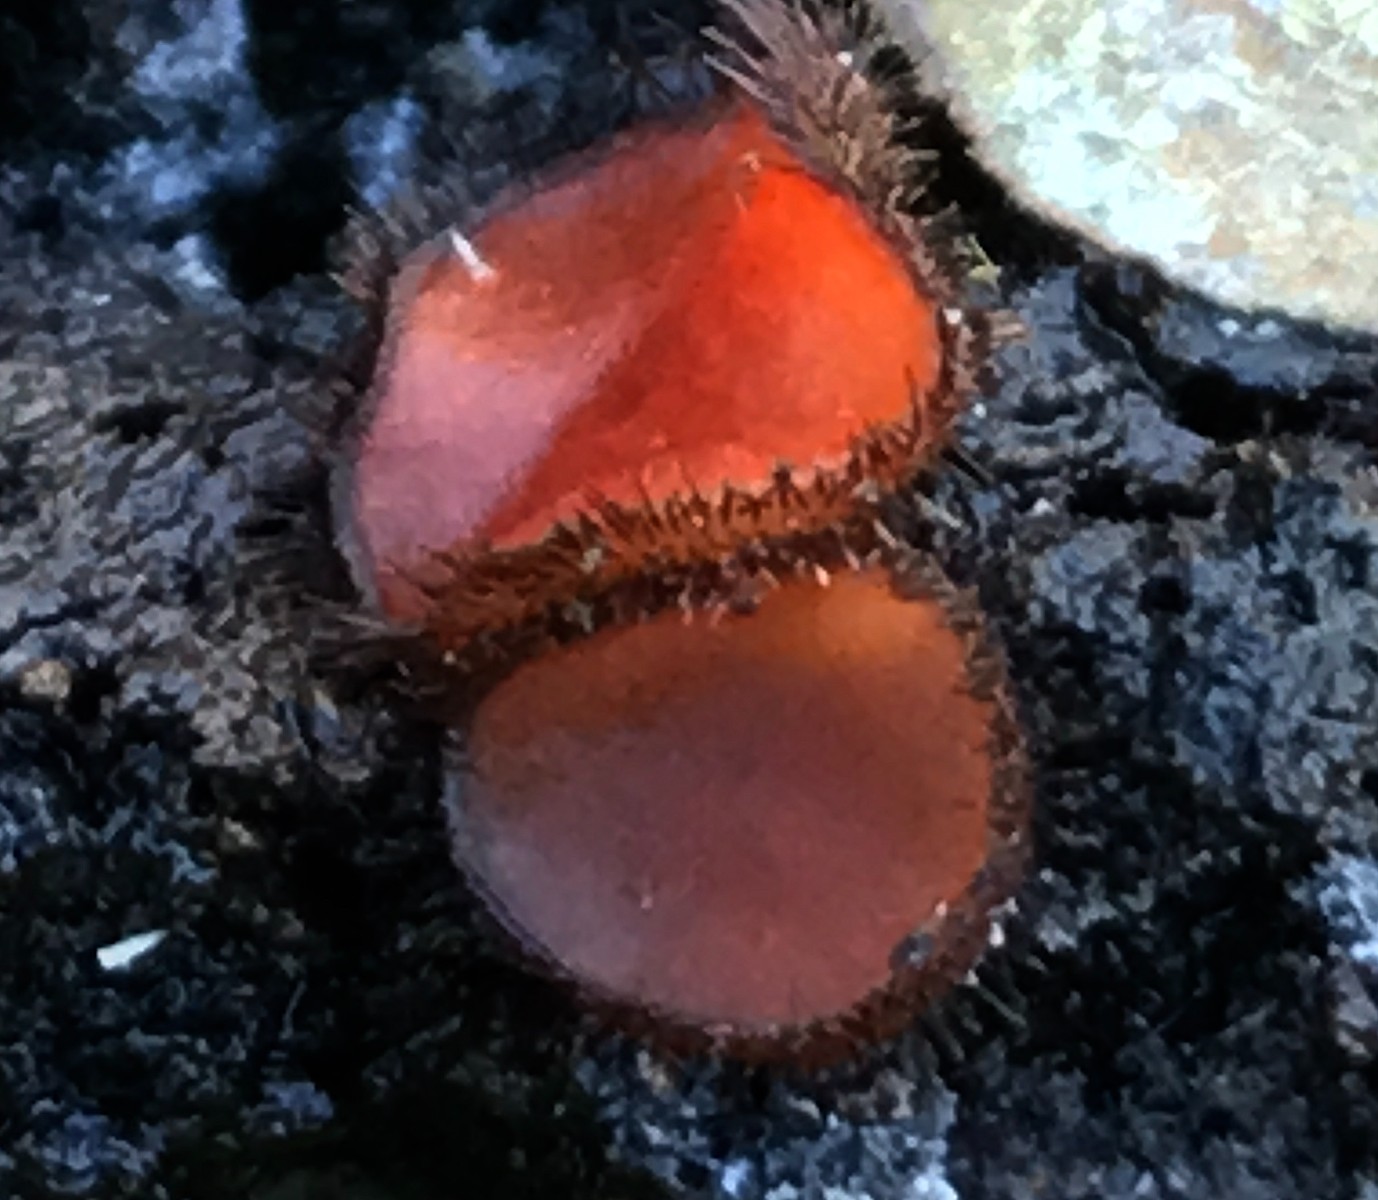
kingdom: Fungi
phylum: Ascomycota
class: Pezizomycetes
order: Pezizales
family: Pyronemataceae
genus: Scutellinia
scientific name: Scutellinia
